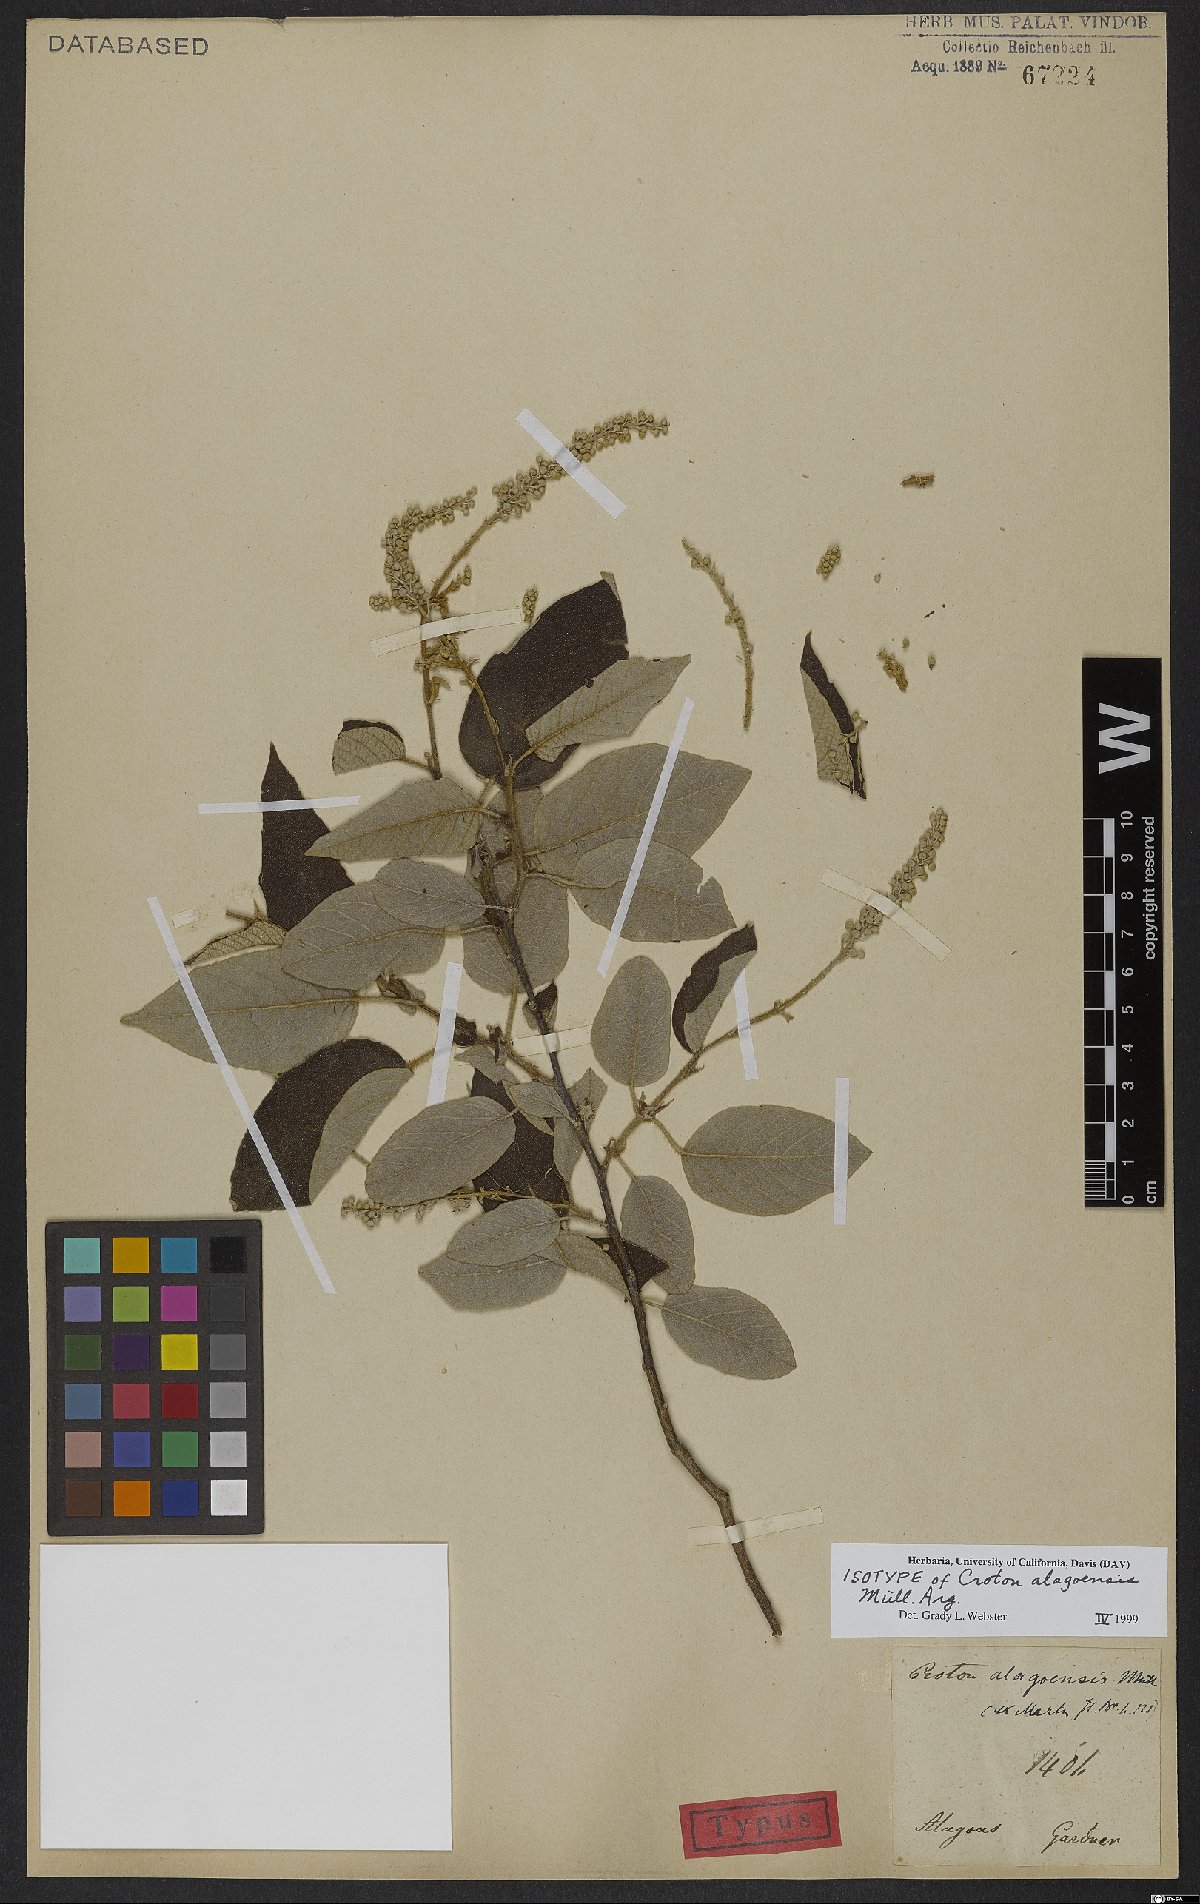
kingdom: Plantae
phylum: Tracheophyta
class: Magnoliopsida
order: Malpighiales
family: Euphorbiaceae
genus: Croton
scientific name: Croton blanchetianus
